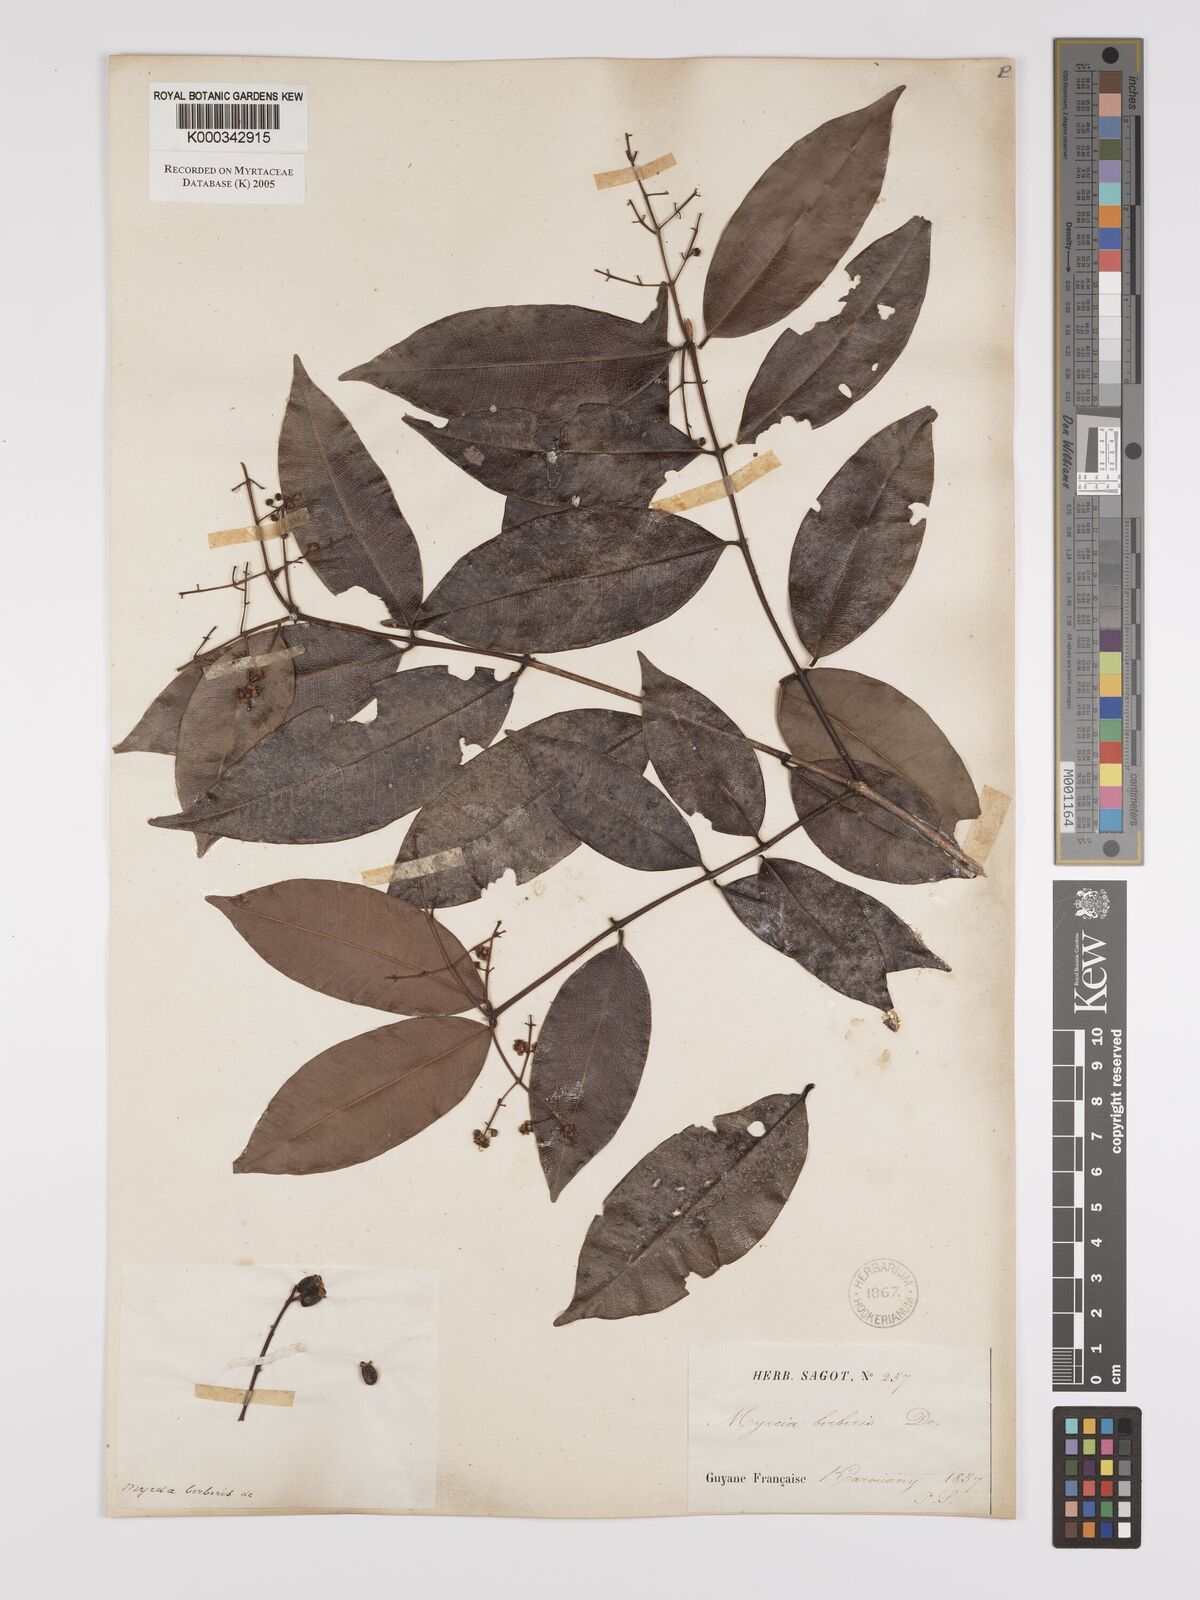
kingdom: Plantae
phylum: Tracheophyta
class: Magnoliopsida
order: Myrtales
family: Myrtaceae
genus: Myrcia
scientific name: Myrcia splendens
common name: Surinam cherry
